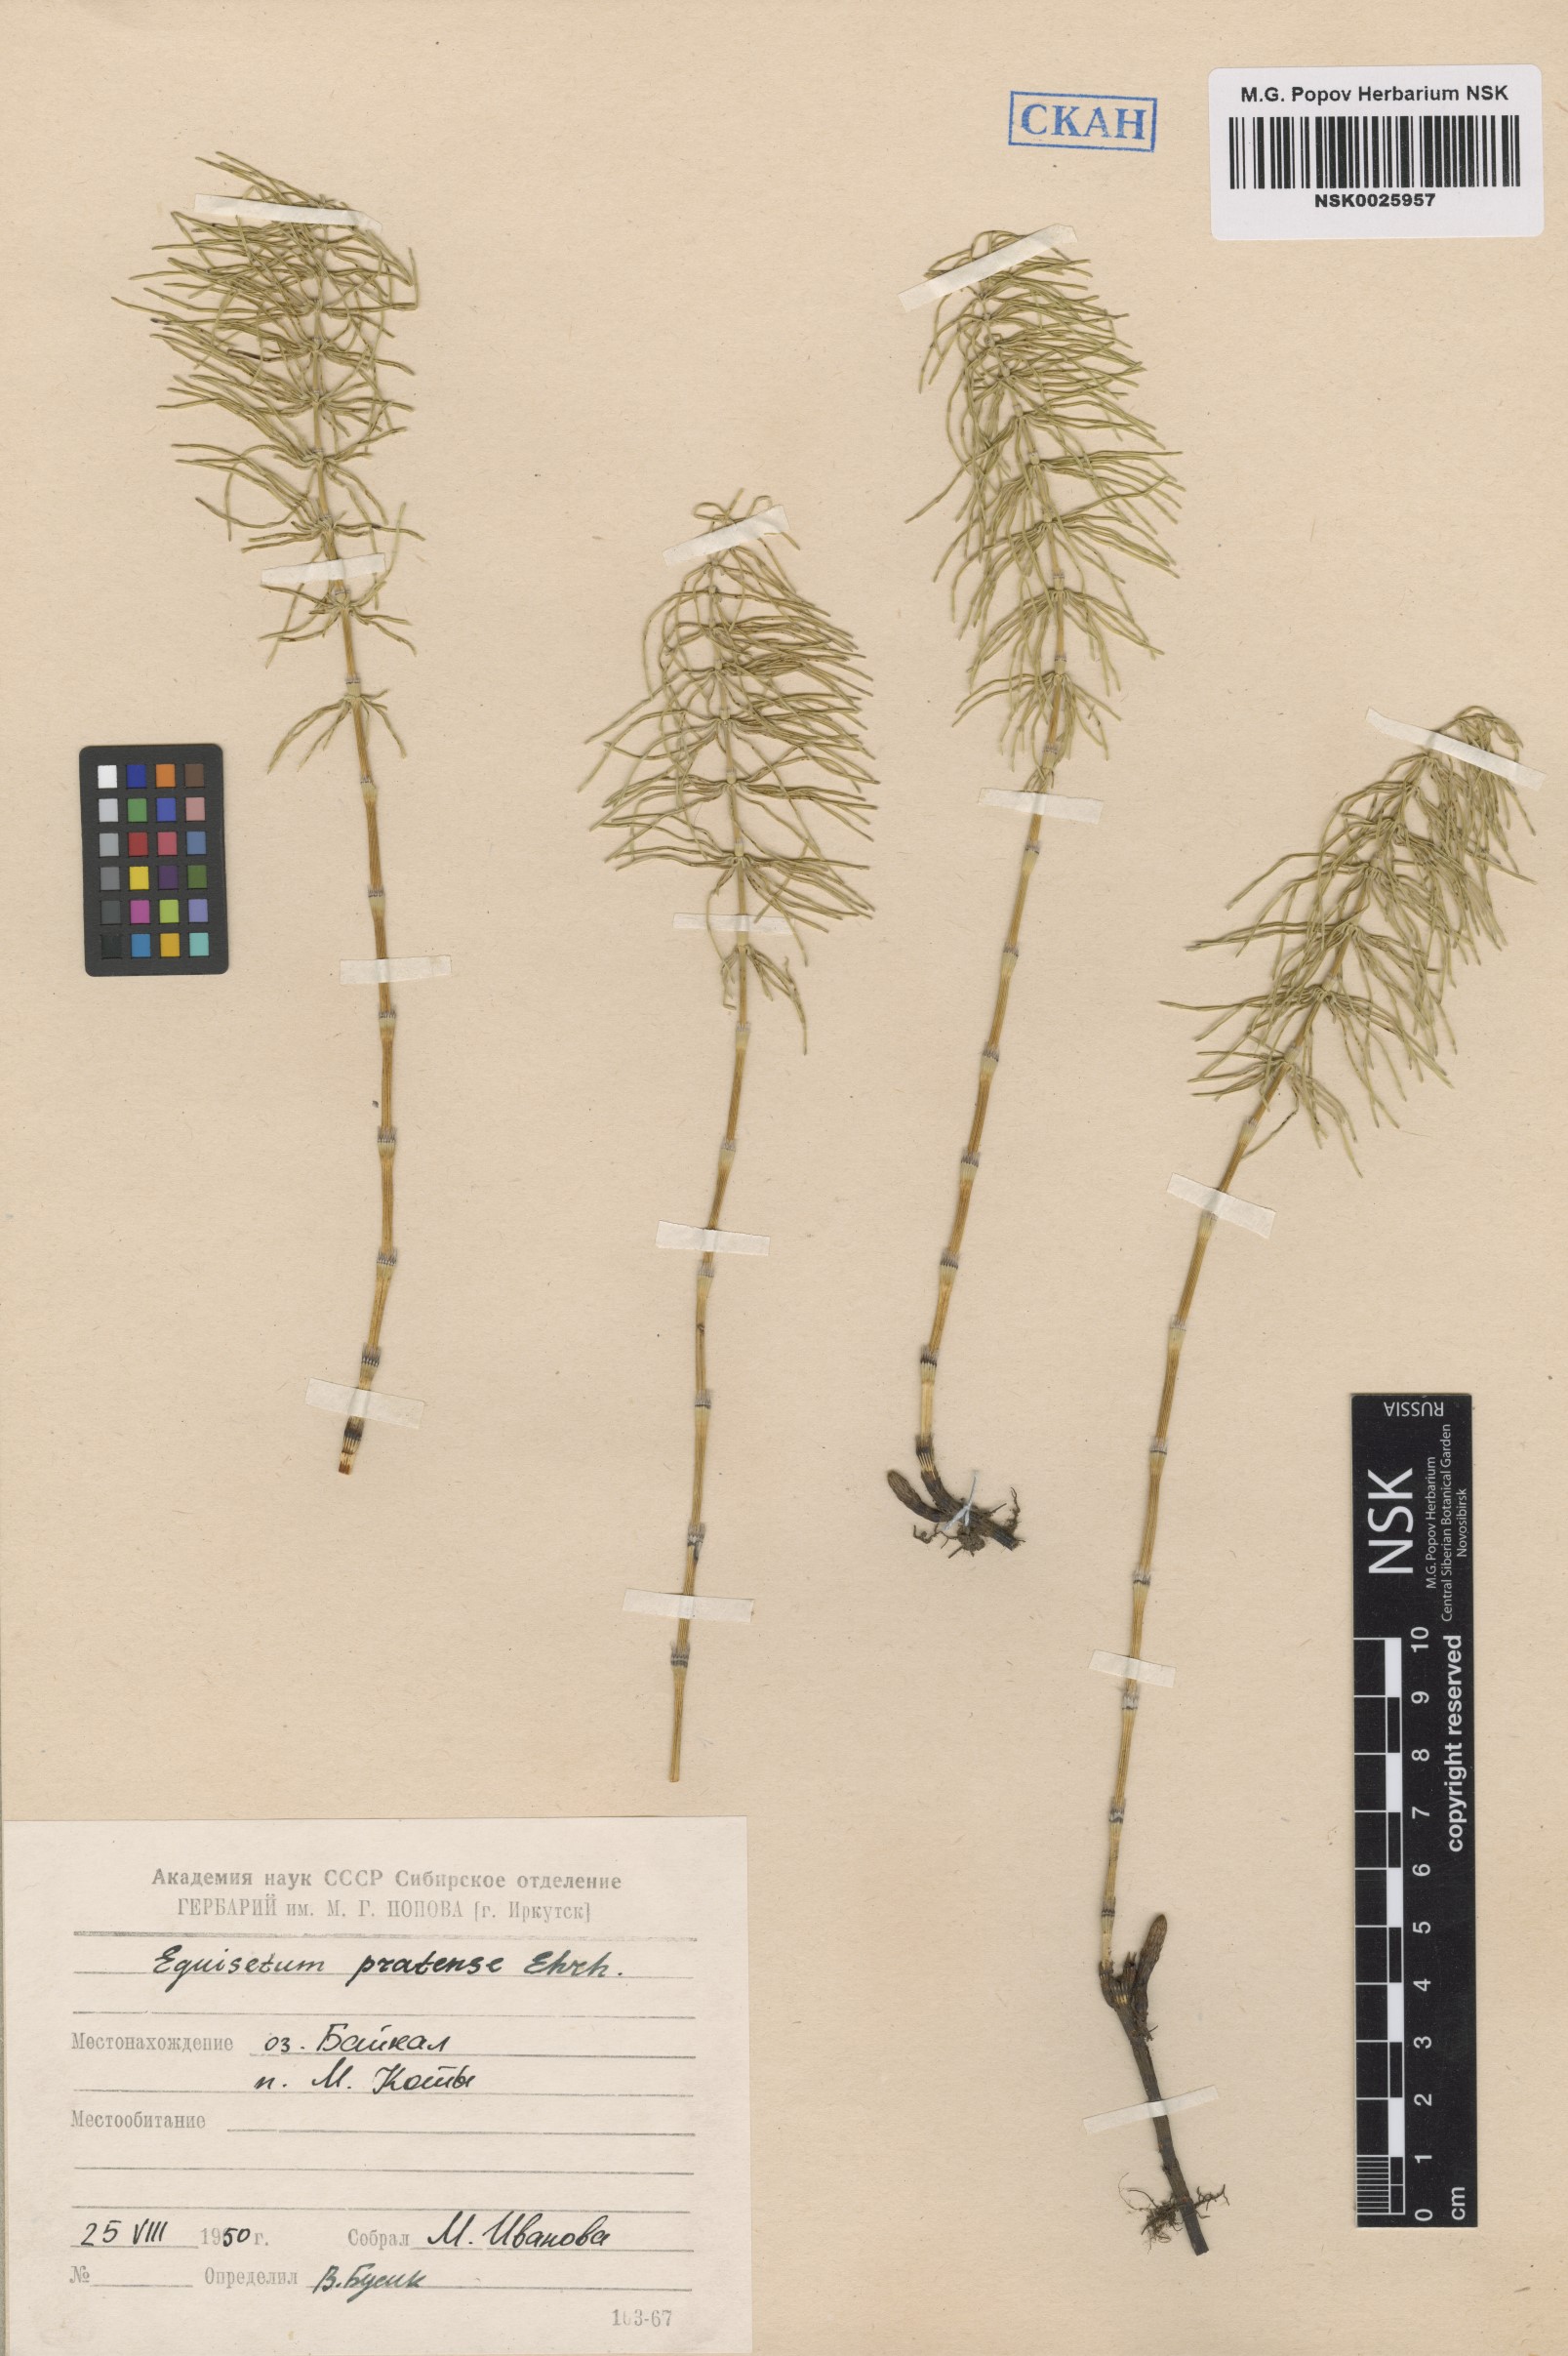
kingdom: Plantae
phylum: Tracheophyta
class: Polypodiopsida
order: Equisetales
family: Equisetaceae
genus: Equisetum
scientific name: Equisetum pratense
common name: Meadow horsetail
